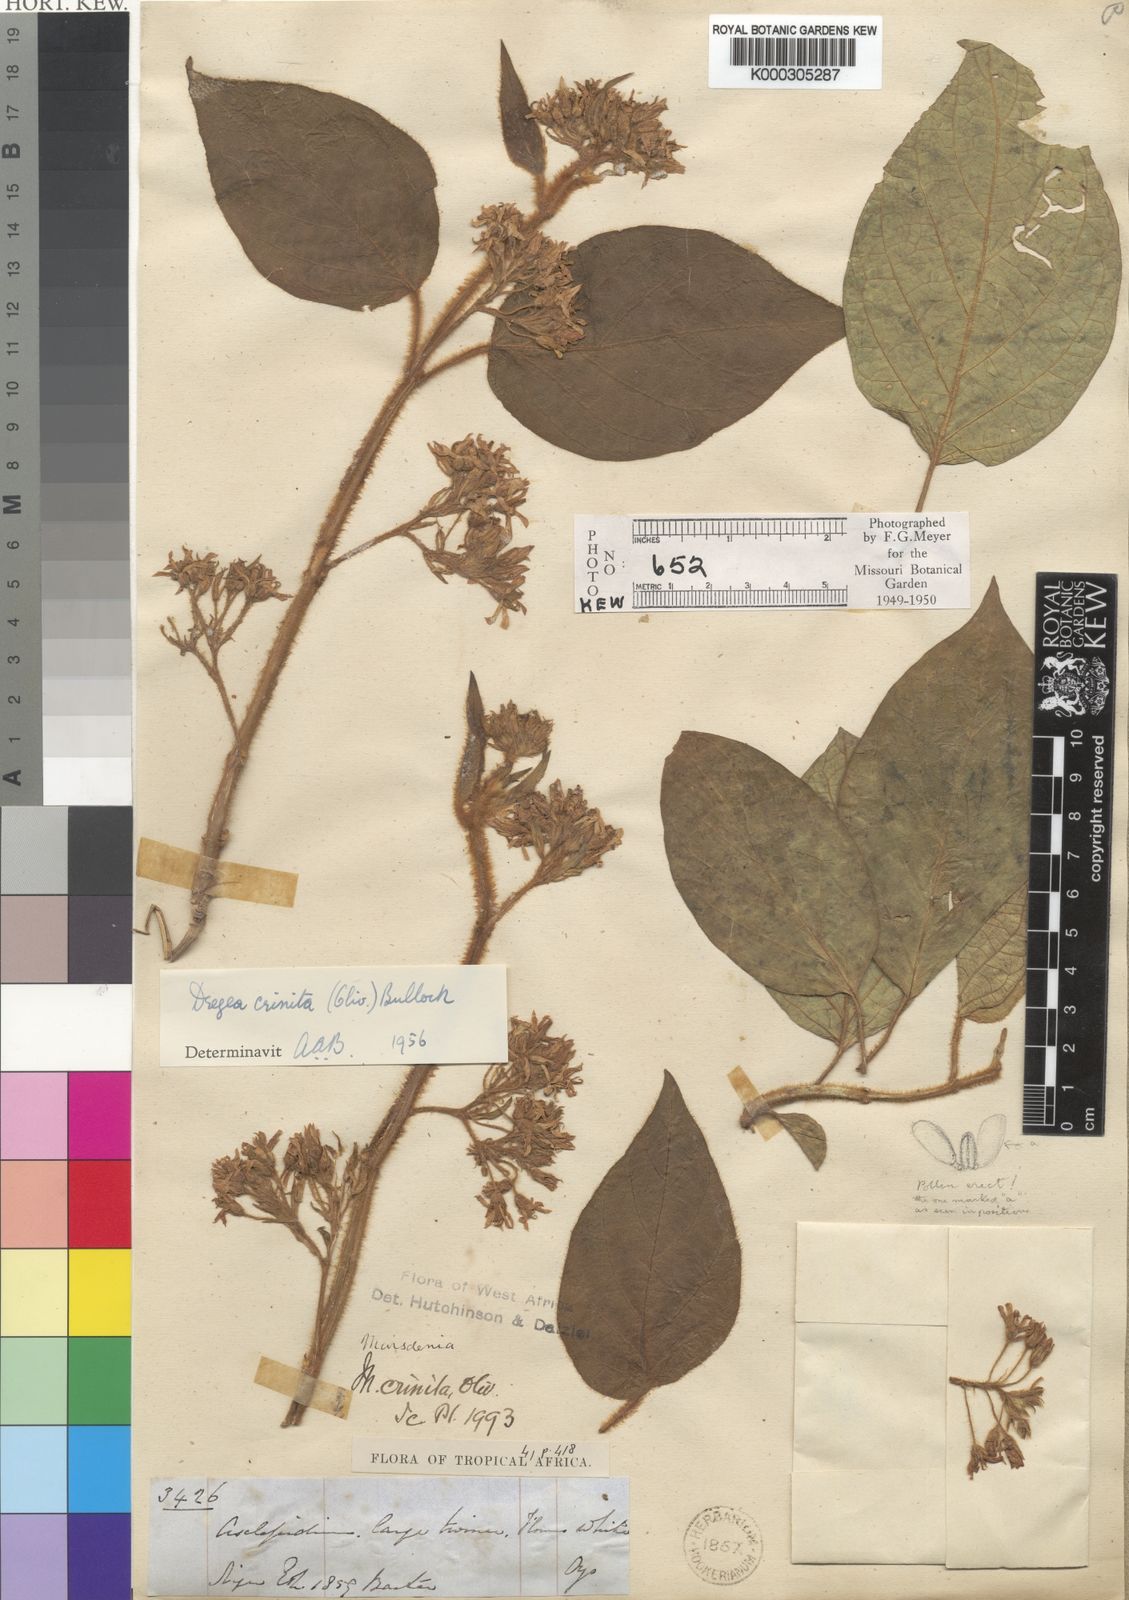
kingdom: Plantae
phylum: Tracheophyta
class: Magnoliopsida
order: Gentianales
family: Apocynaceae
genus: Stephanotis
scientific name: Stephanotis crinita
